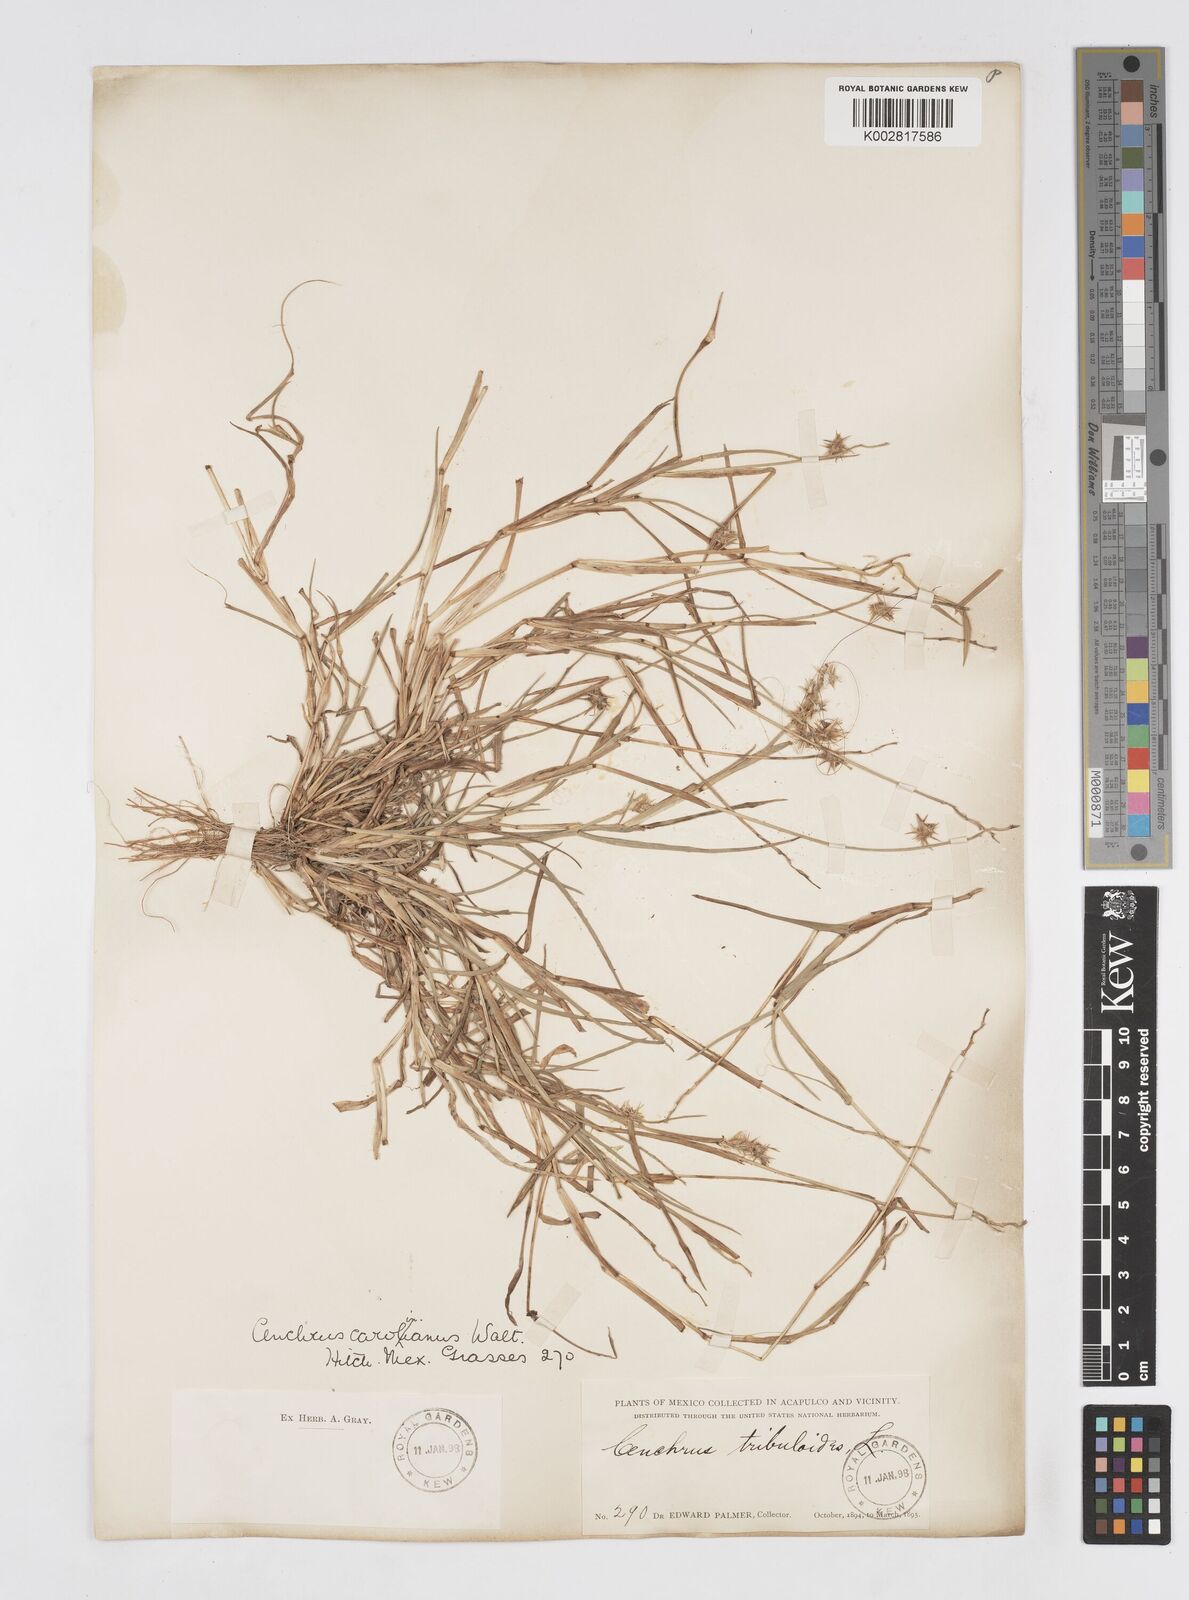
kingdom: Plantae
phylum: Tracheophyta
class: Liliopsida
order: Poales
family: Poaceae
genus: Cenchrus
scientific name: Cenchrus spinifex
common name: Coast sandbur
